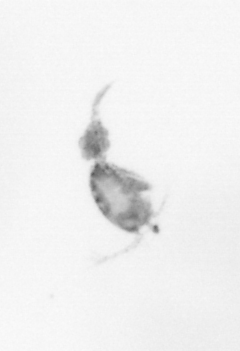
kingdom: Animalia
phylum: Arthropoda
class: Copepoda
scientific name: Copepoda
